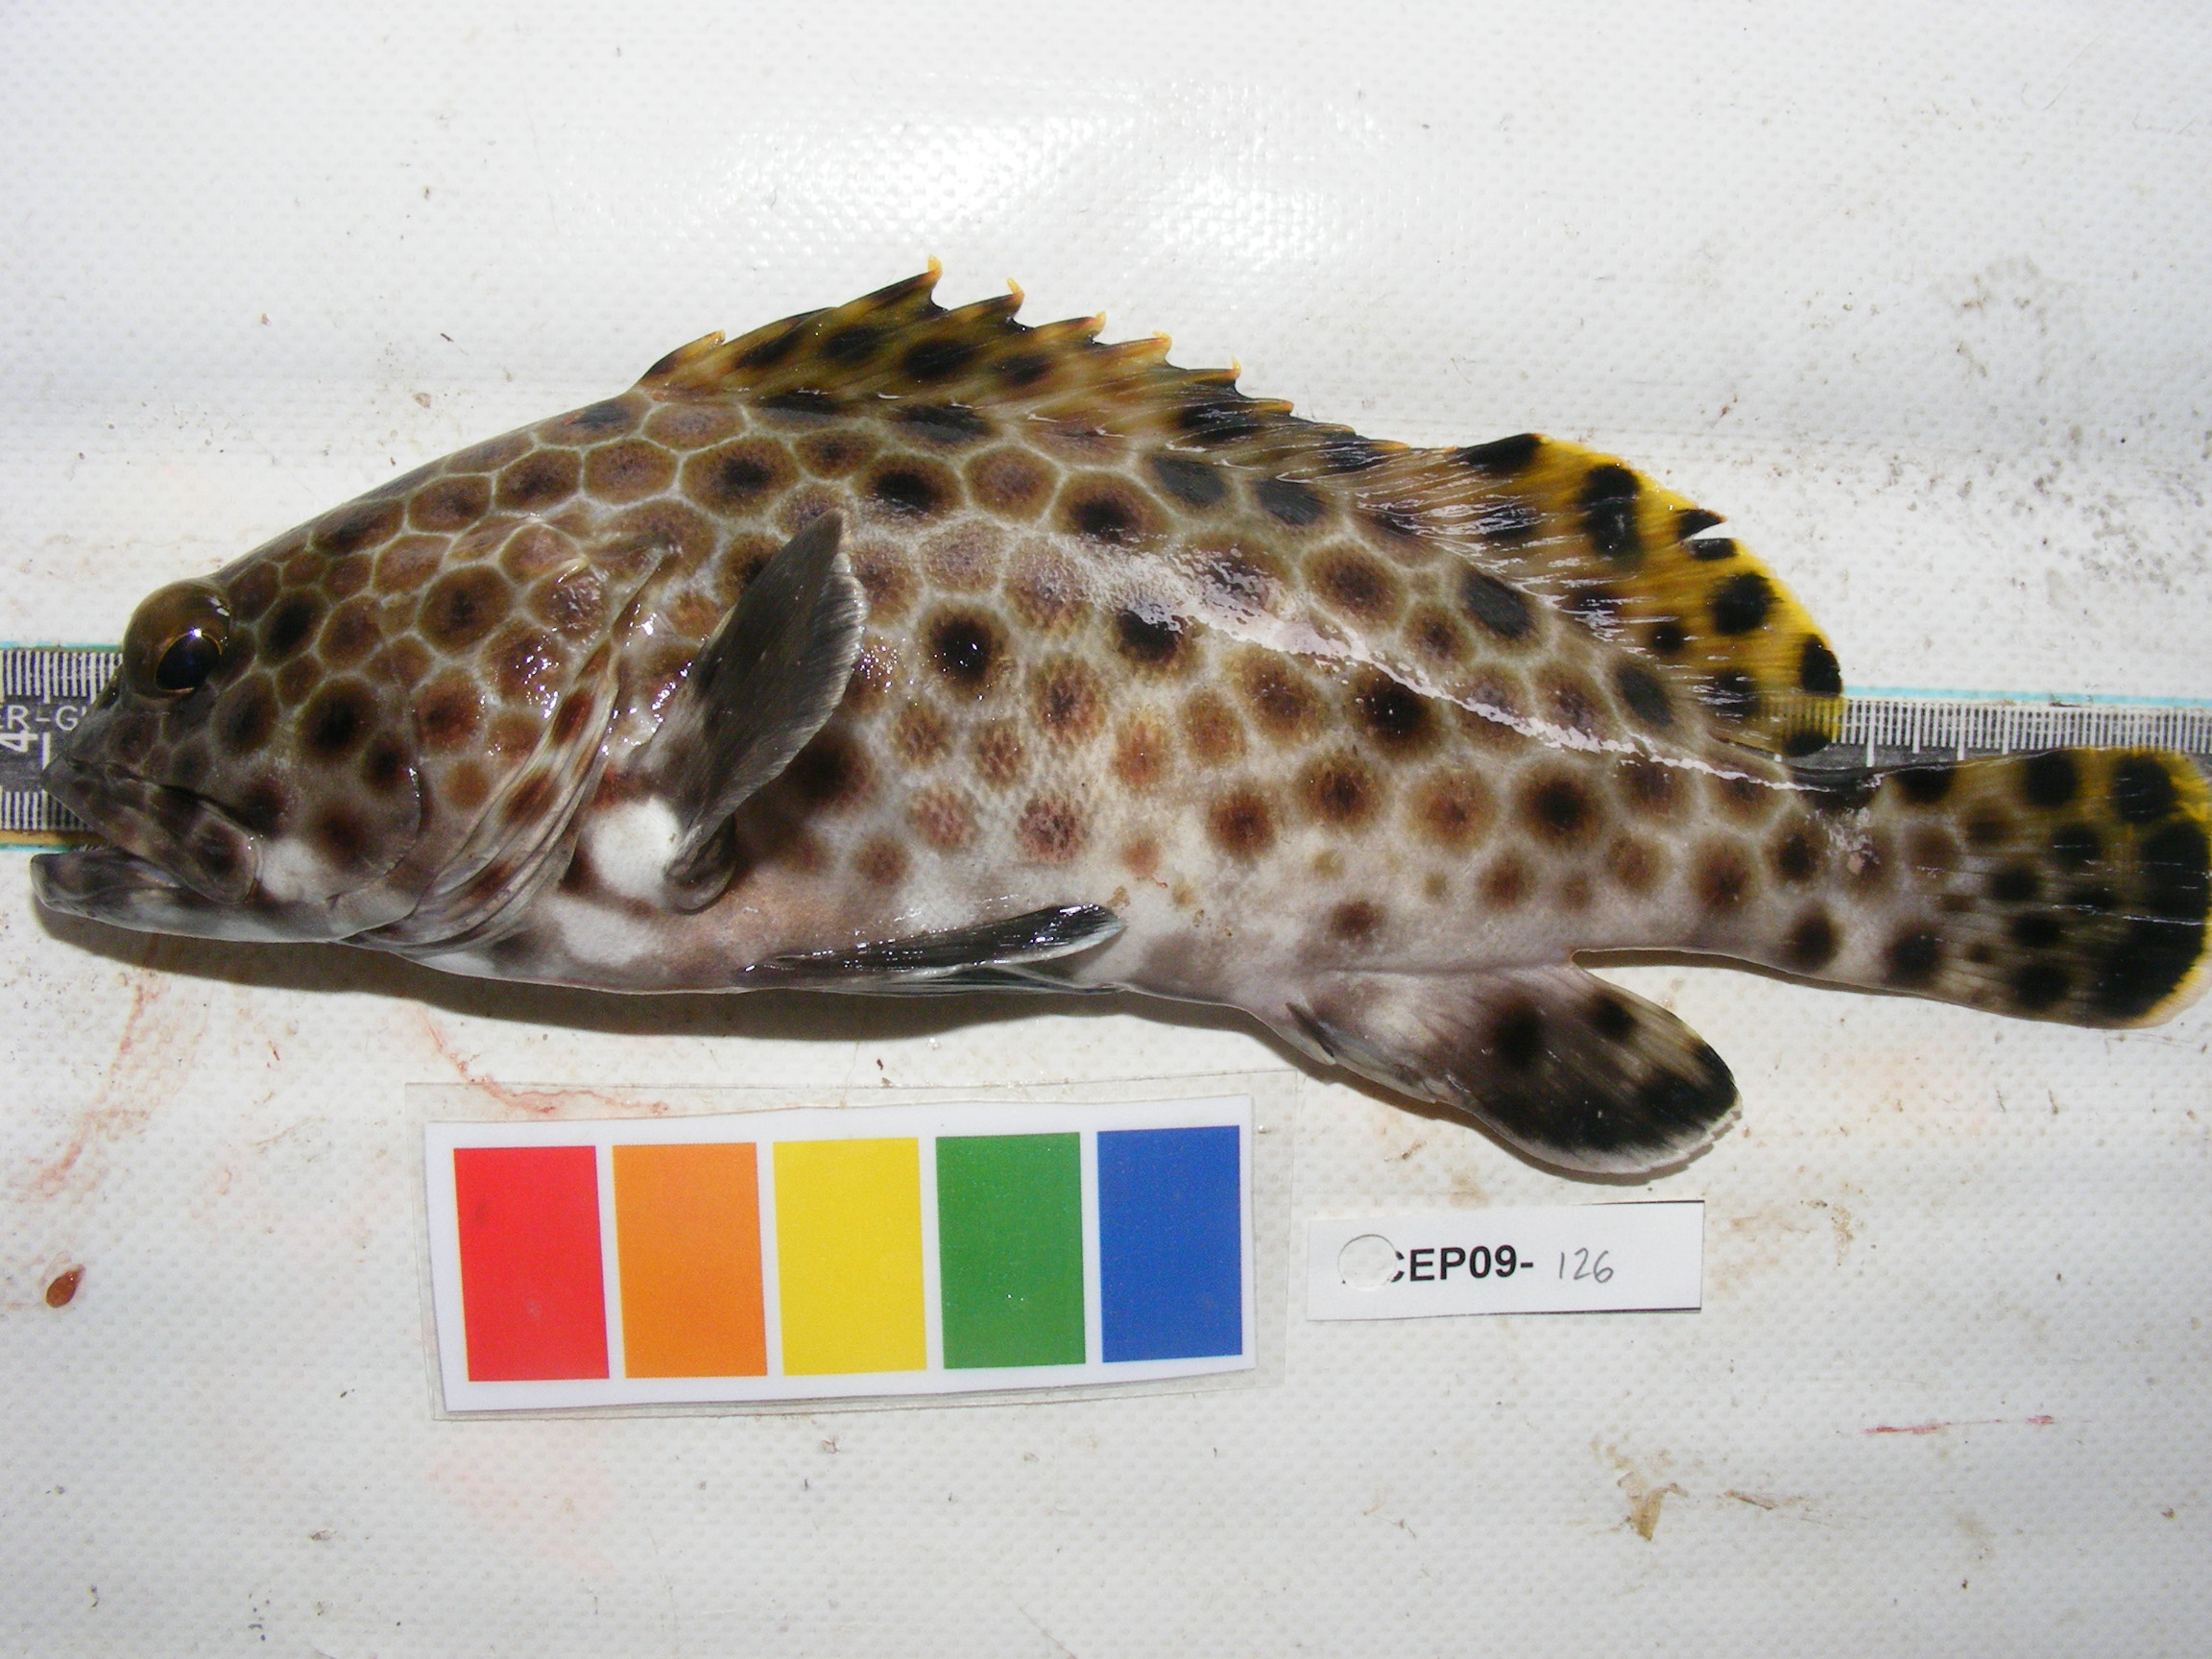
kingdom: Animalia
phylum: Chordata
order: Perciformes
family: Serranidae
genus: Epinephelus
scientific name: Epinephelus faveatus
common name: Barred-chest grouper
